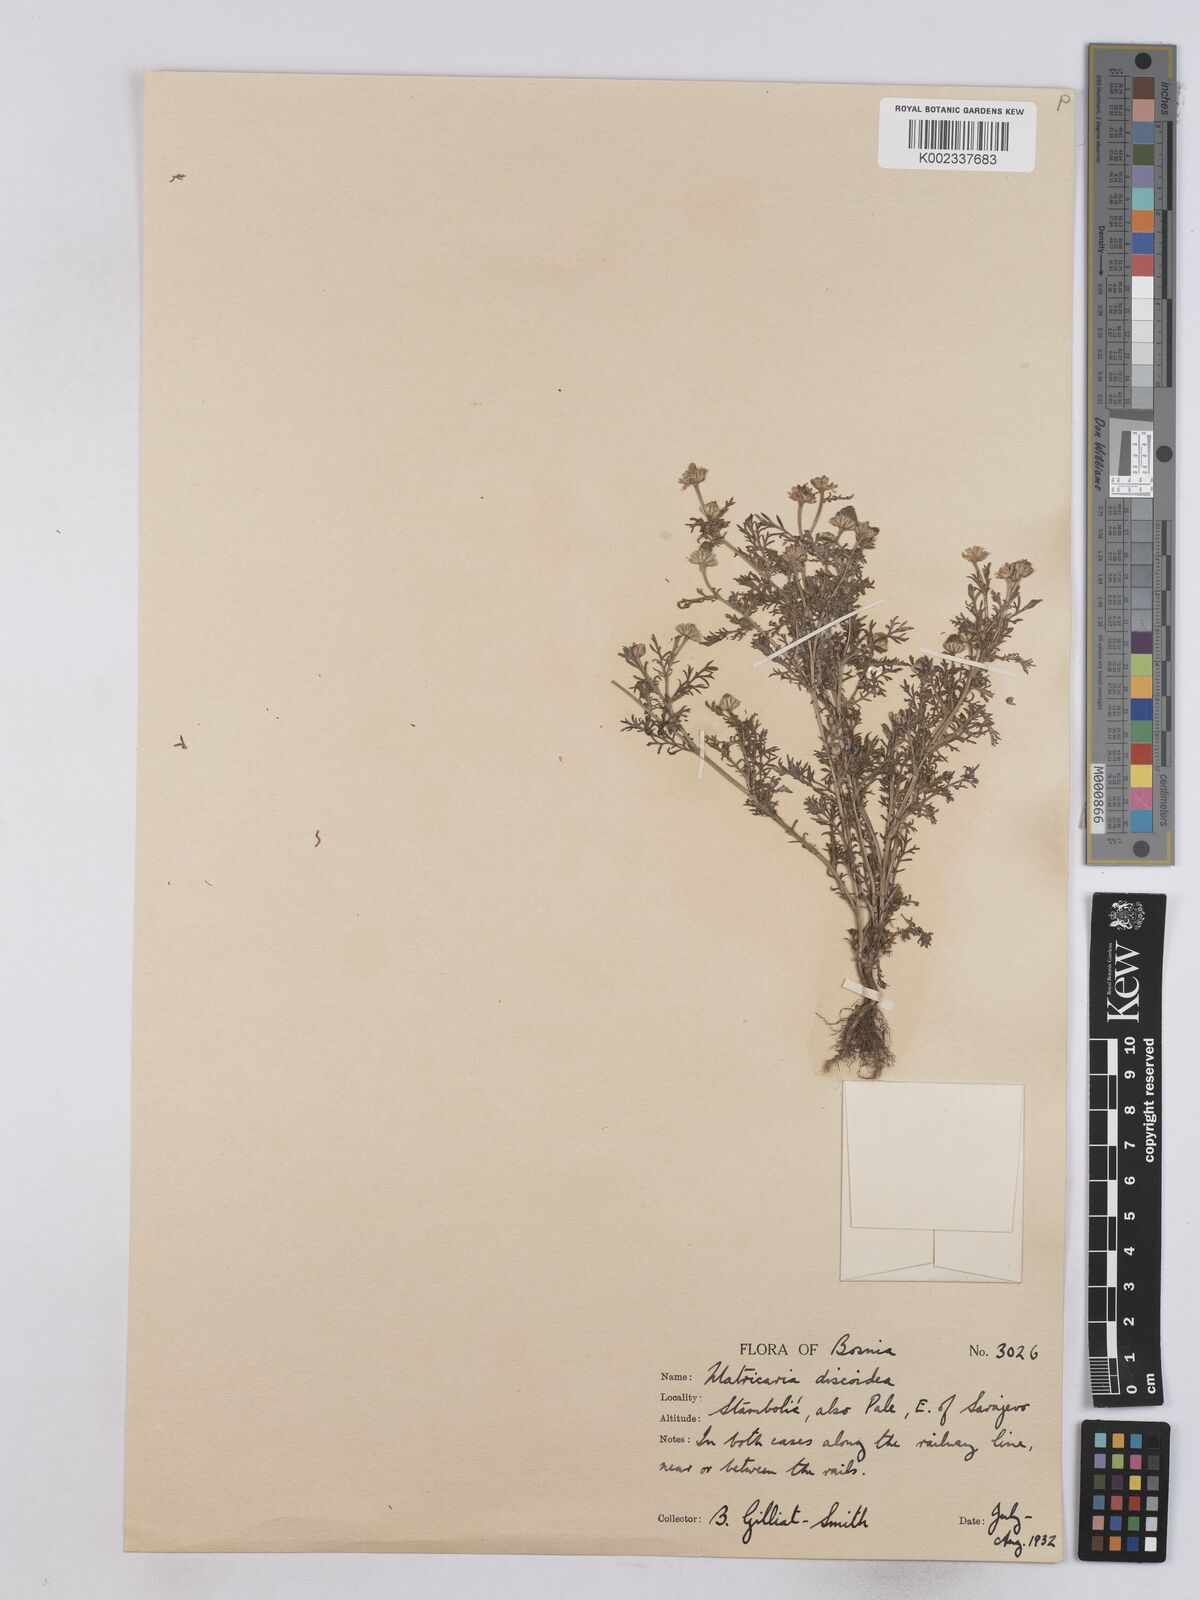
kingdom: Plantae
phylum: Tracheophyta
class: Magnoliopsida
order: Asterales
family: Asteraceae
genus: Matricaria
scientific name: Matricaria
